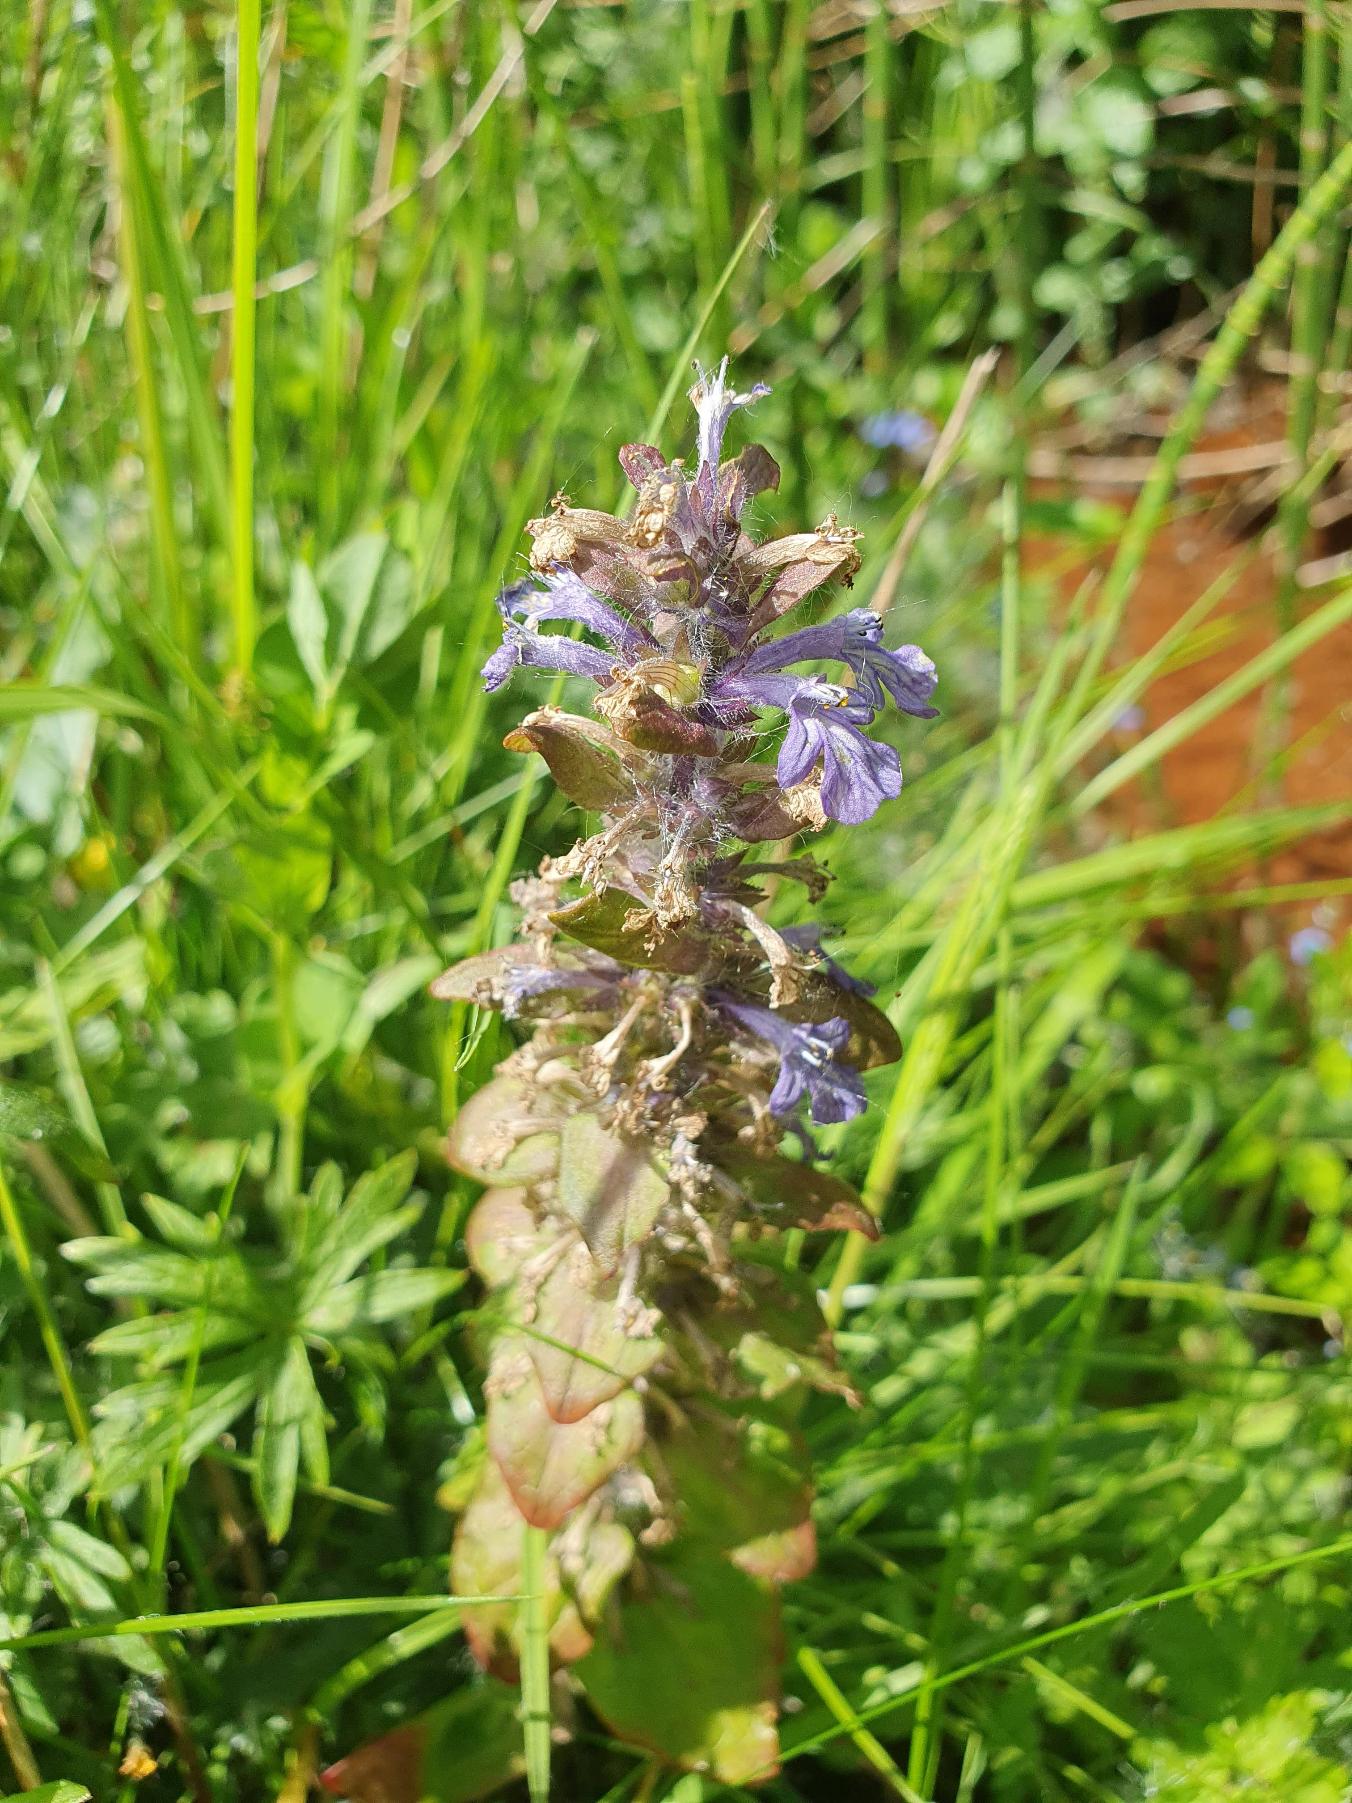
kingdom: Plantae
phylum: Tracheophyta
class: Magnoliopsida
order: Lamiales
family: Lamiaceae
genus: Ajuga
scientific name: Ajuga reptans
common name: Krybende læbeløs
